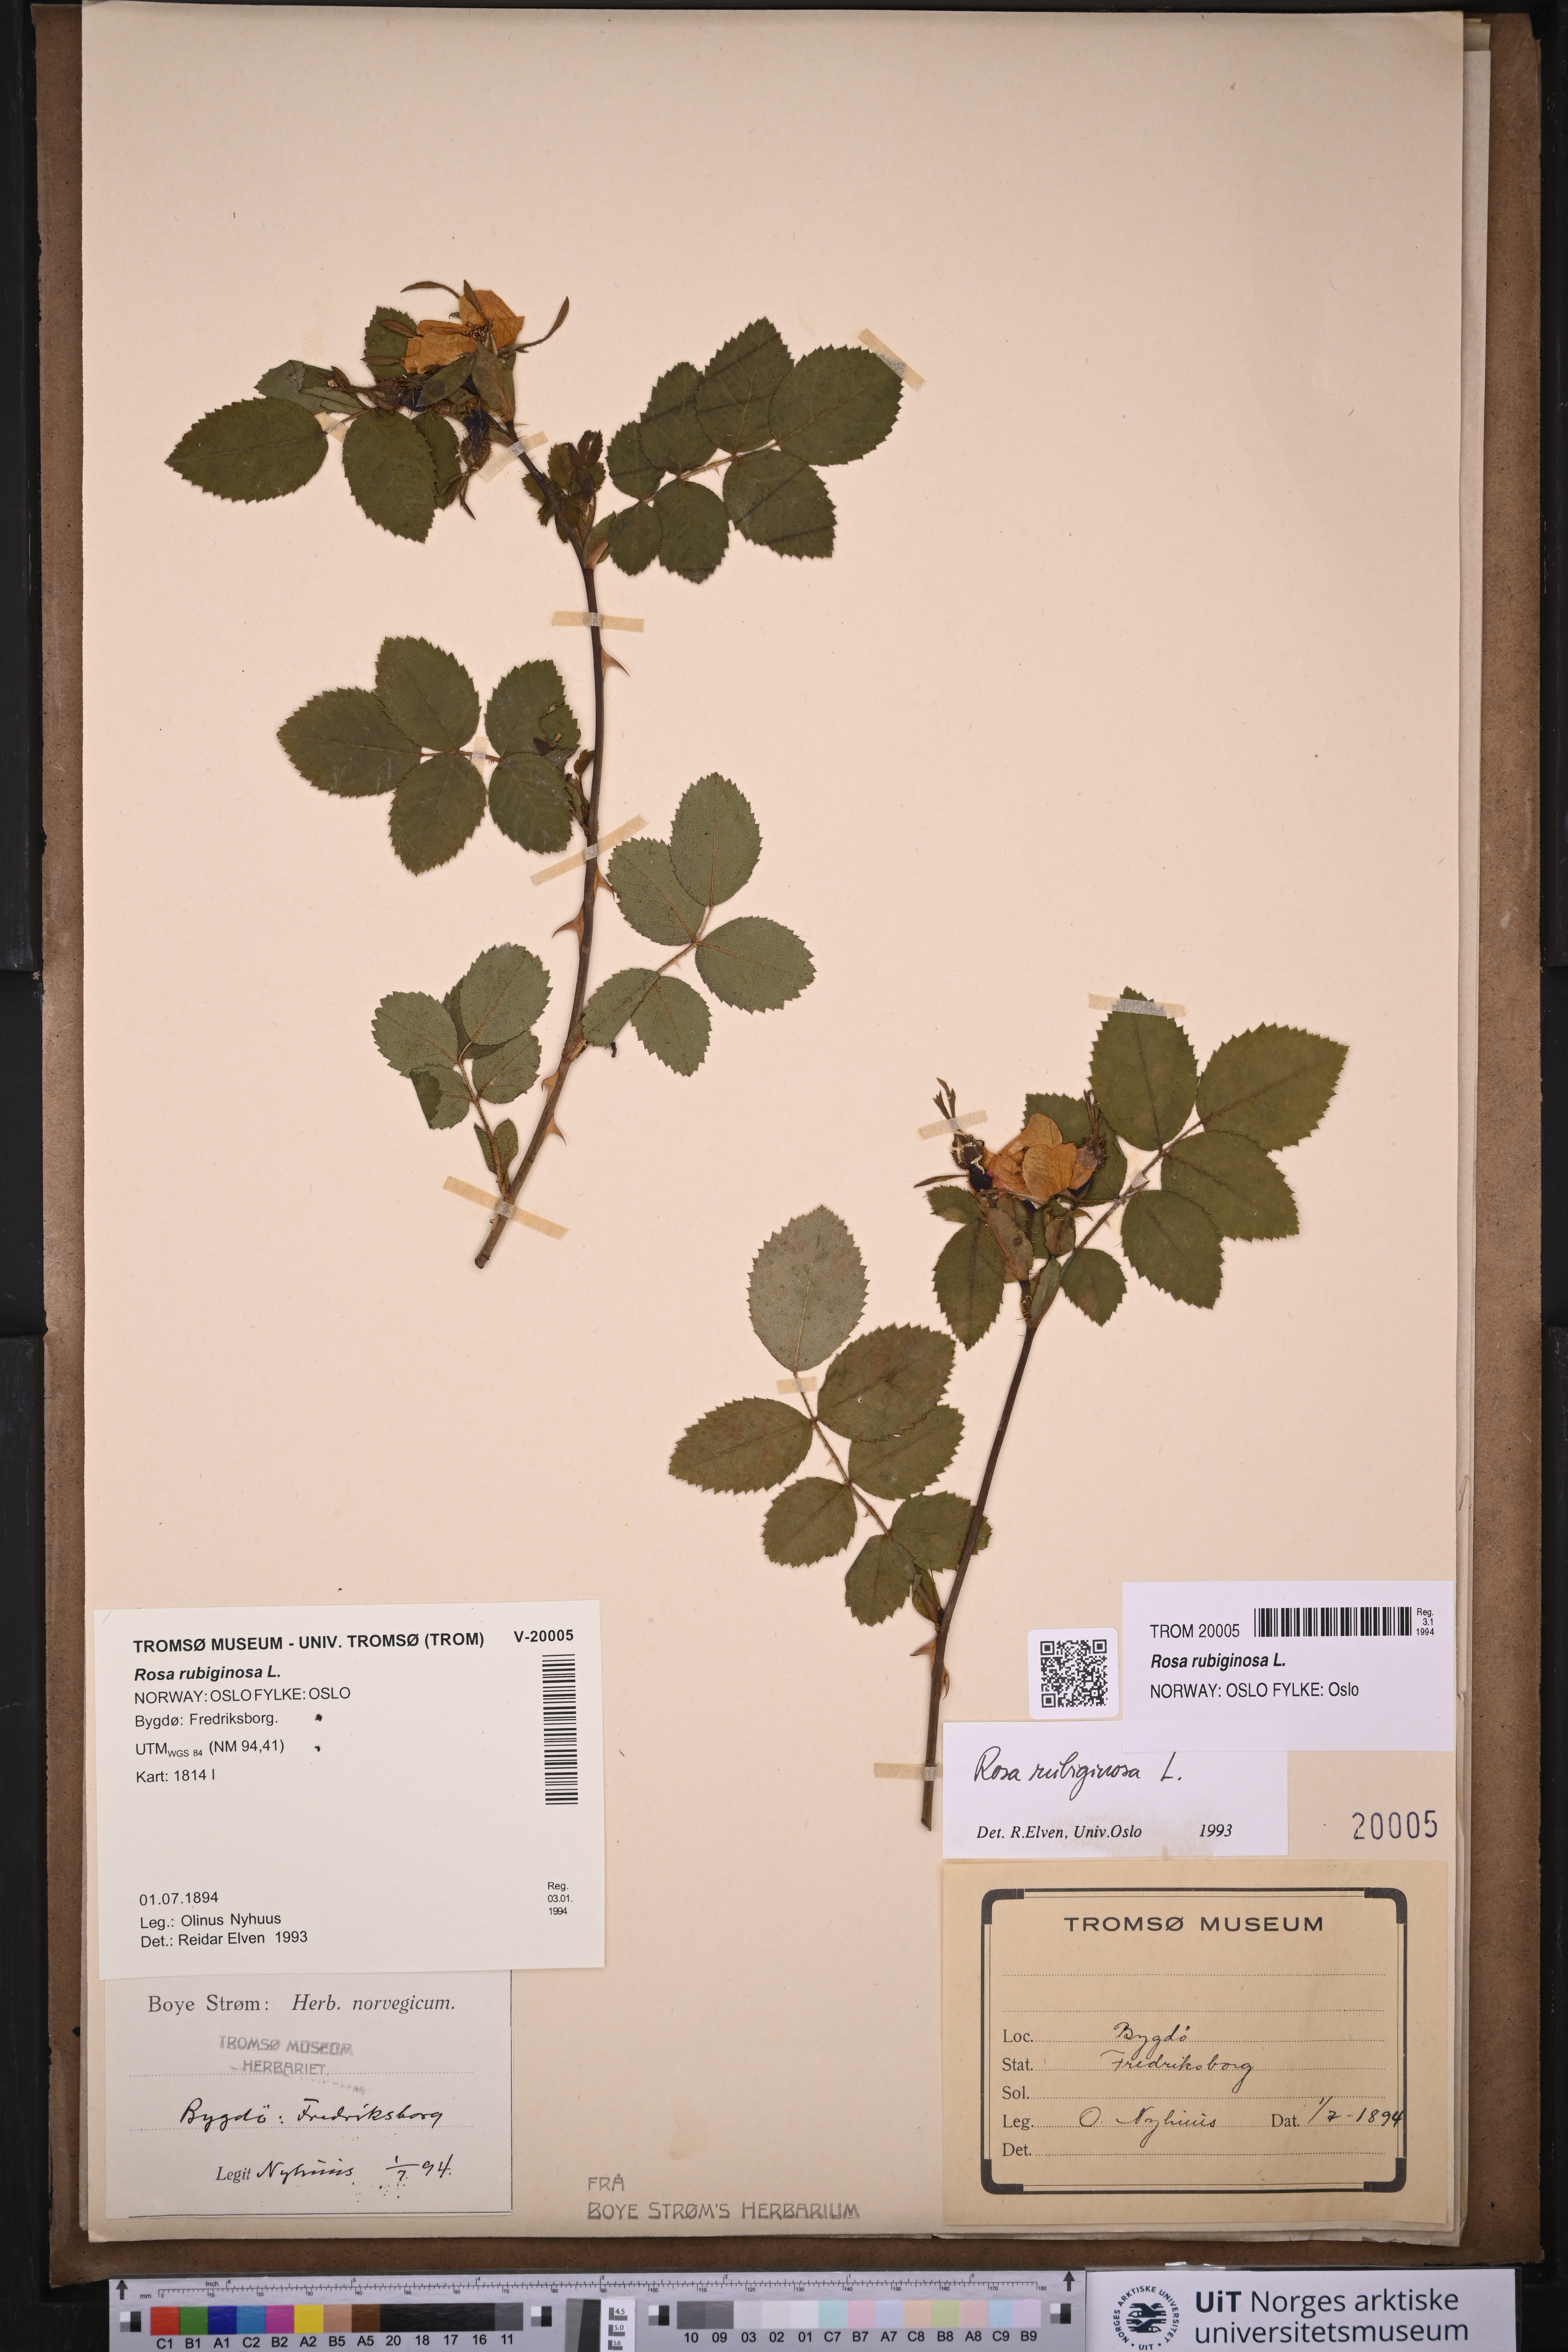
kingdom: Plantae
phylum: Tracheophyta
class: Magnoliopsida
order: Rosales
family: Rosaceae
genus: Rosa
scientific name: Rosa rubiginosa
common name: Sweet-briar
